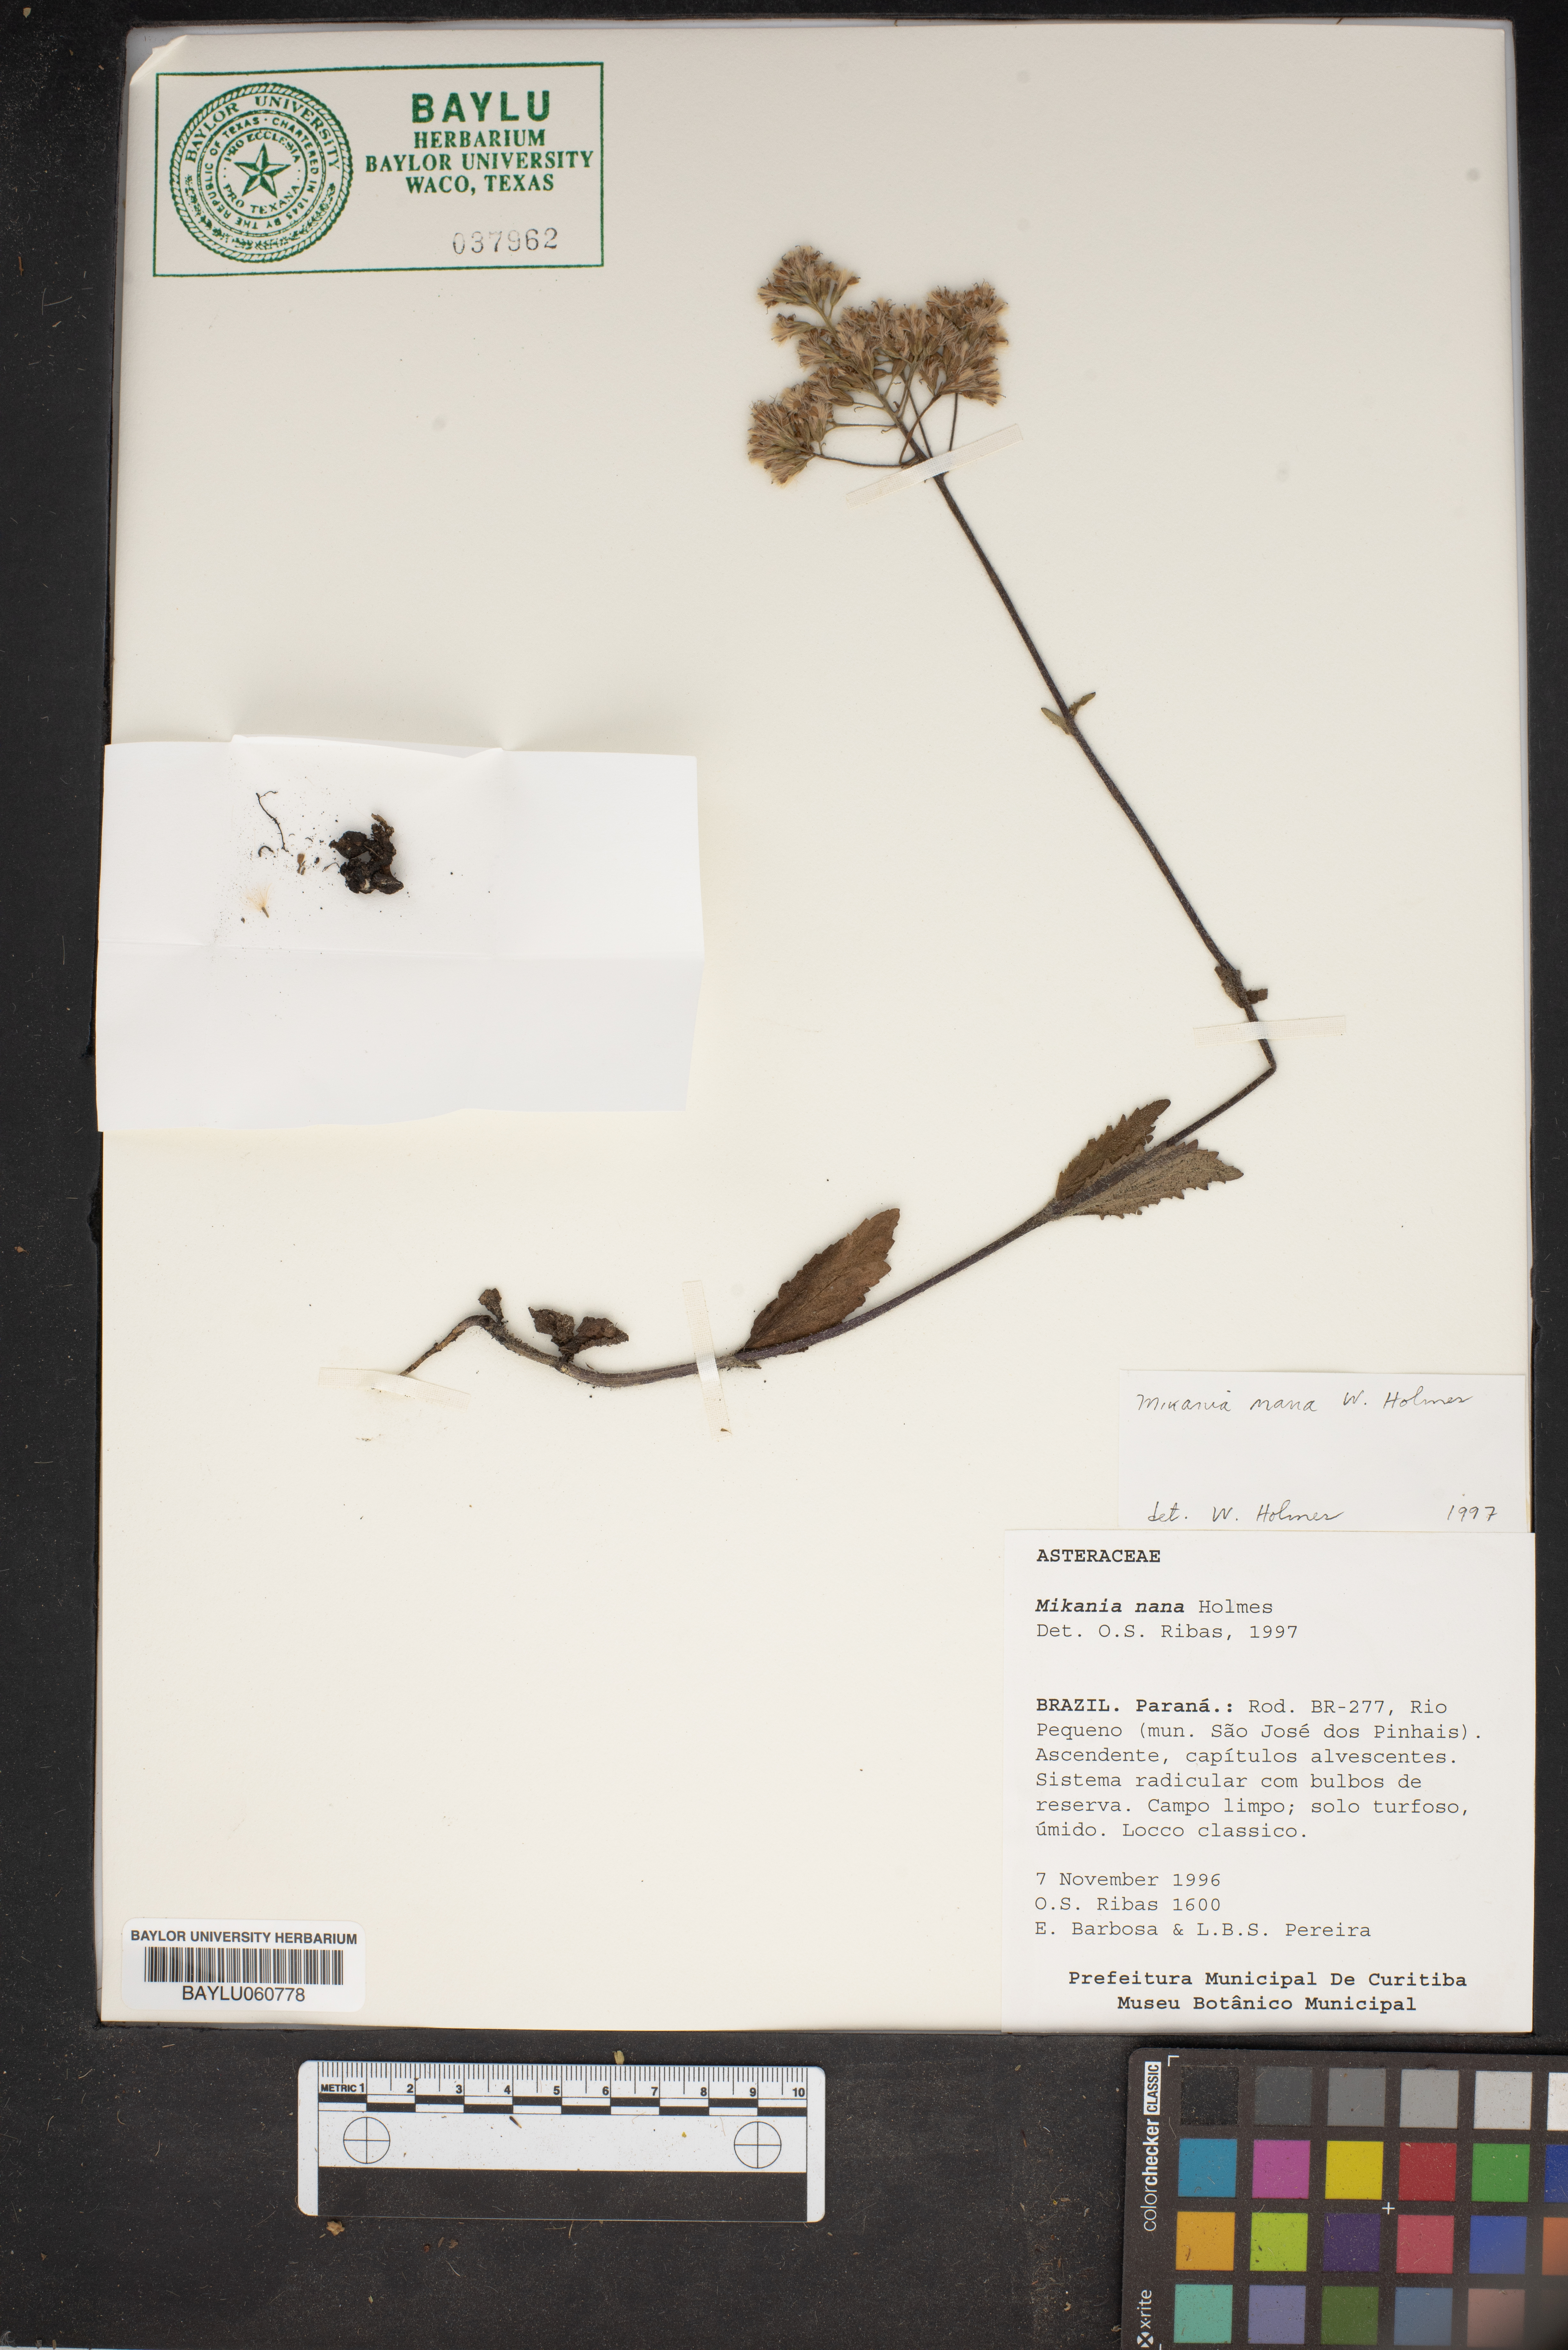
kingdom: Plantae
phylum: Tracheophyta
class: Magnoliopsida
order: Asterales
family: Asteraceae
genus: Mikania
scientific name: Mikania nana
